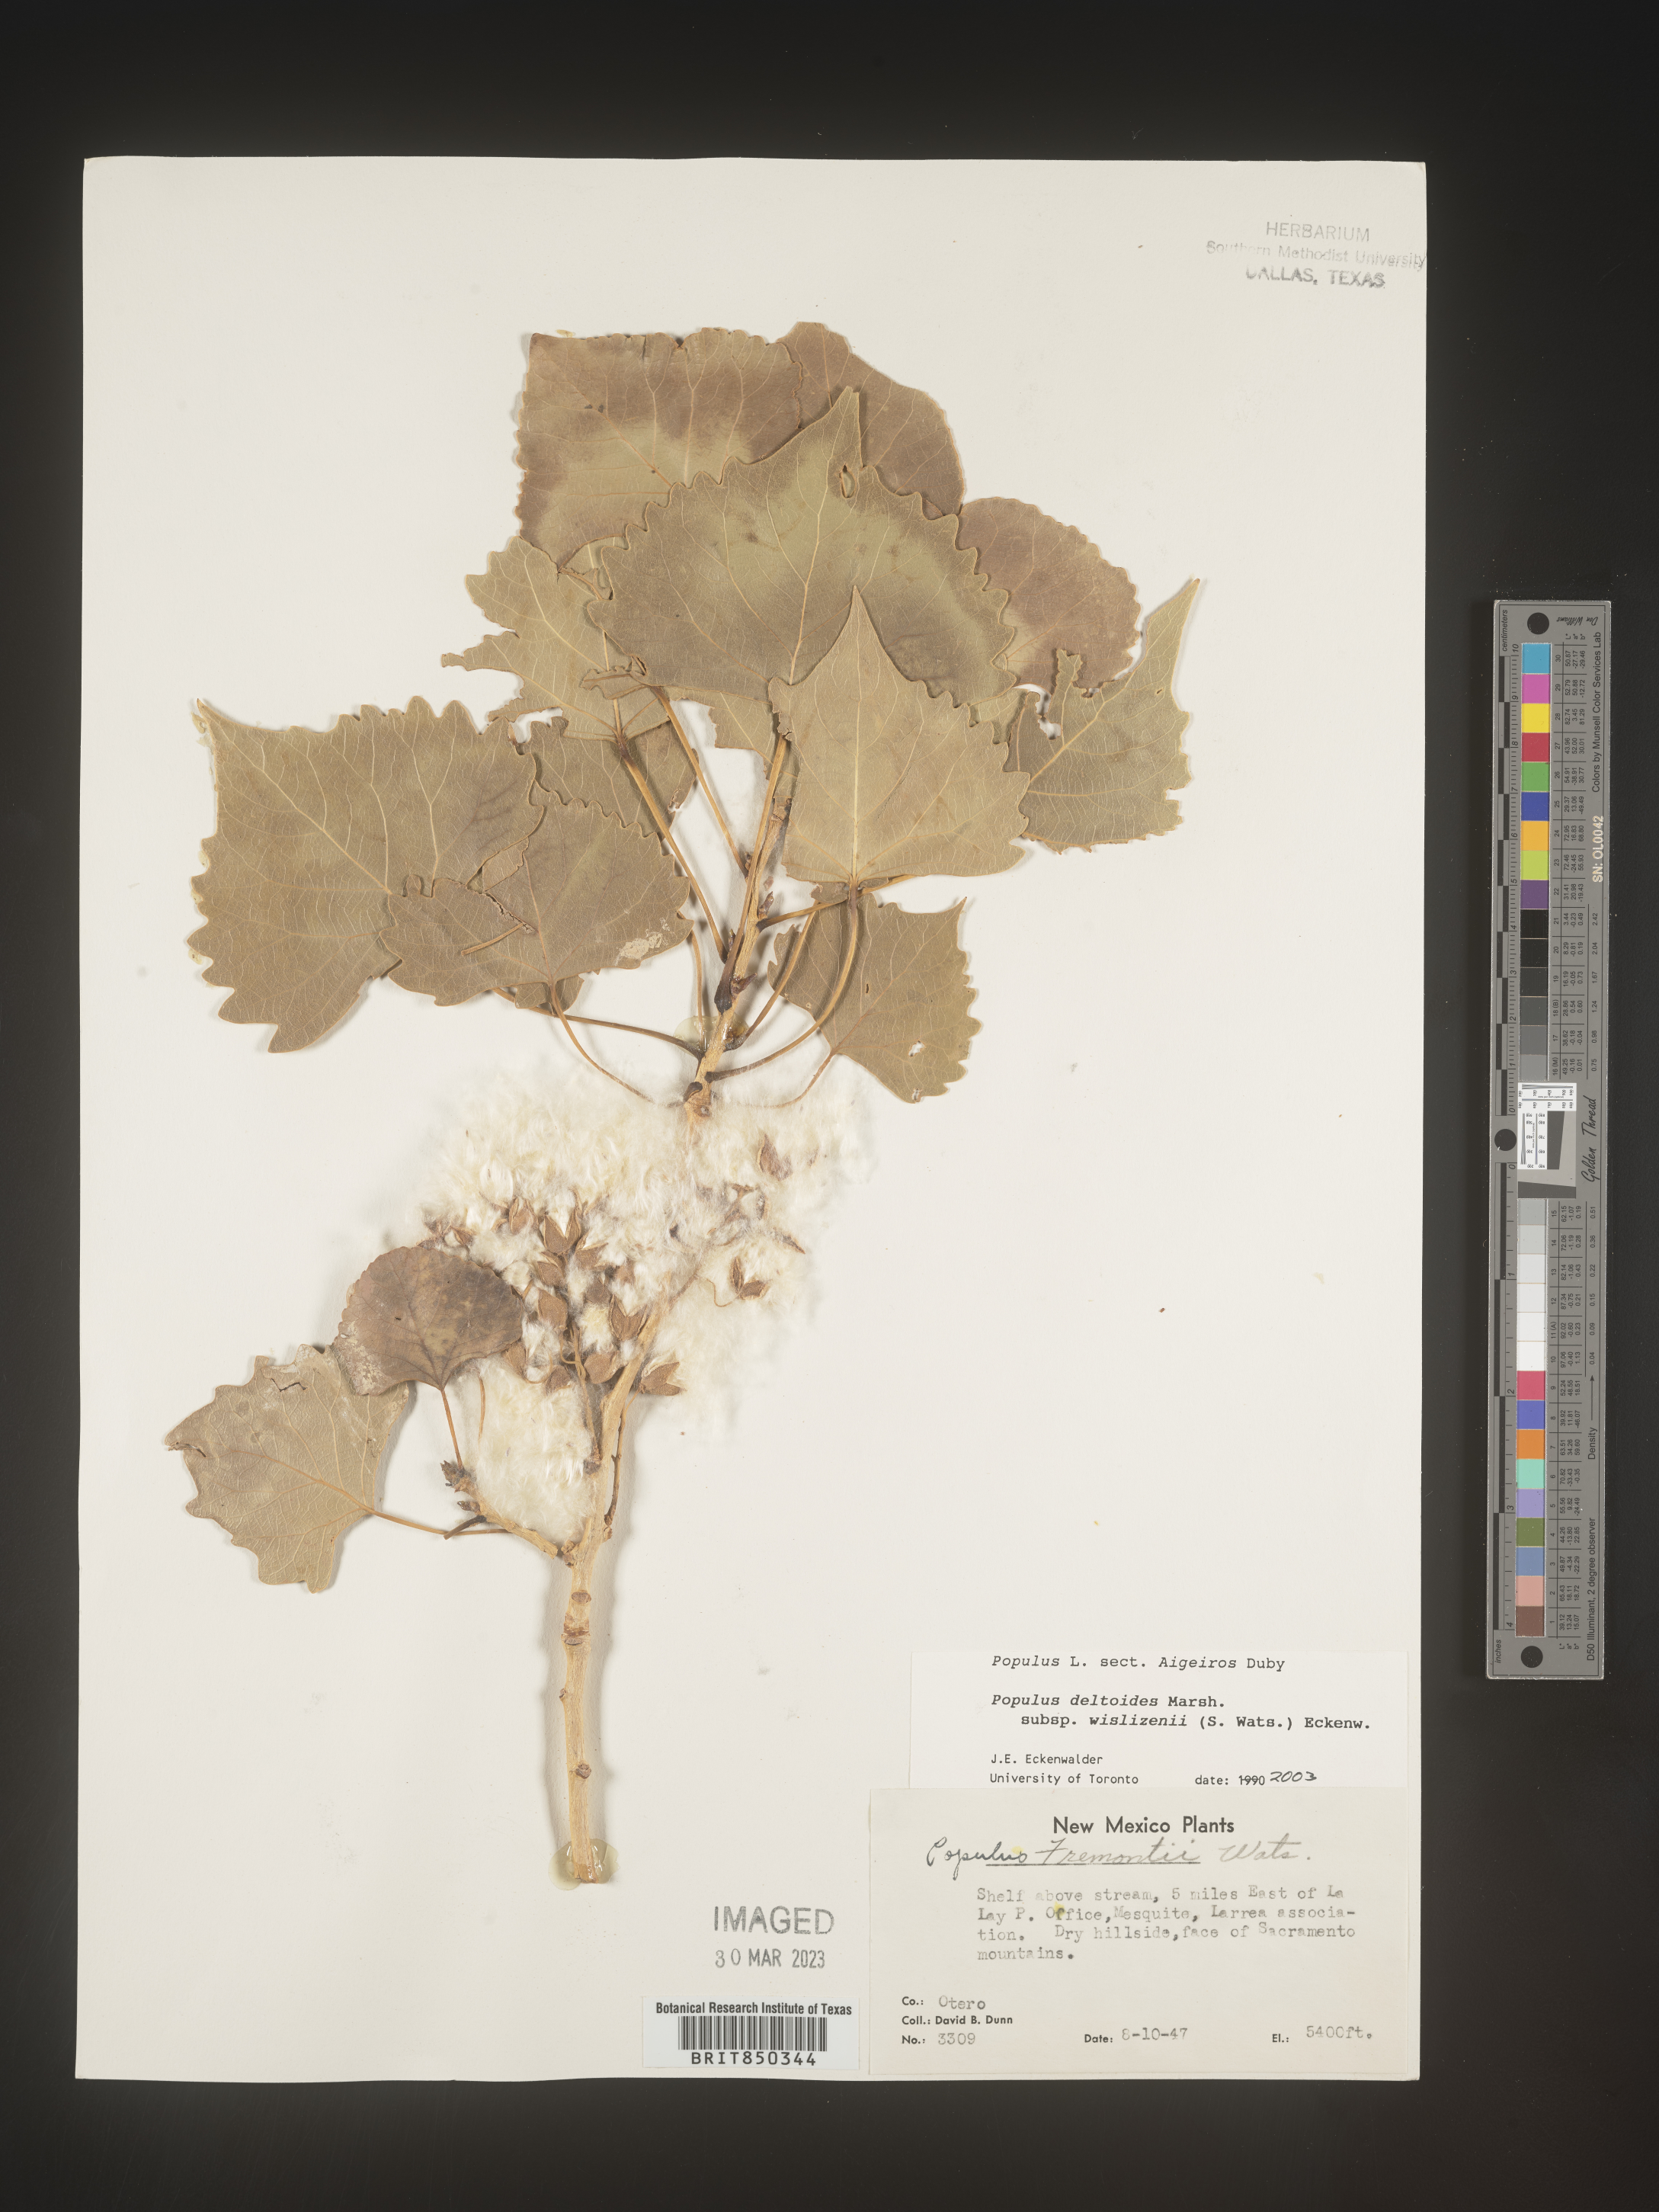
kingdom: Plantae
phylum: Tracheophyta
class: Magnoliopsida
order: Malpighiales
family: Salicaceae
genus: Populus
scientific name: Populus deltoides
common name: Eastern cottonwood
